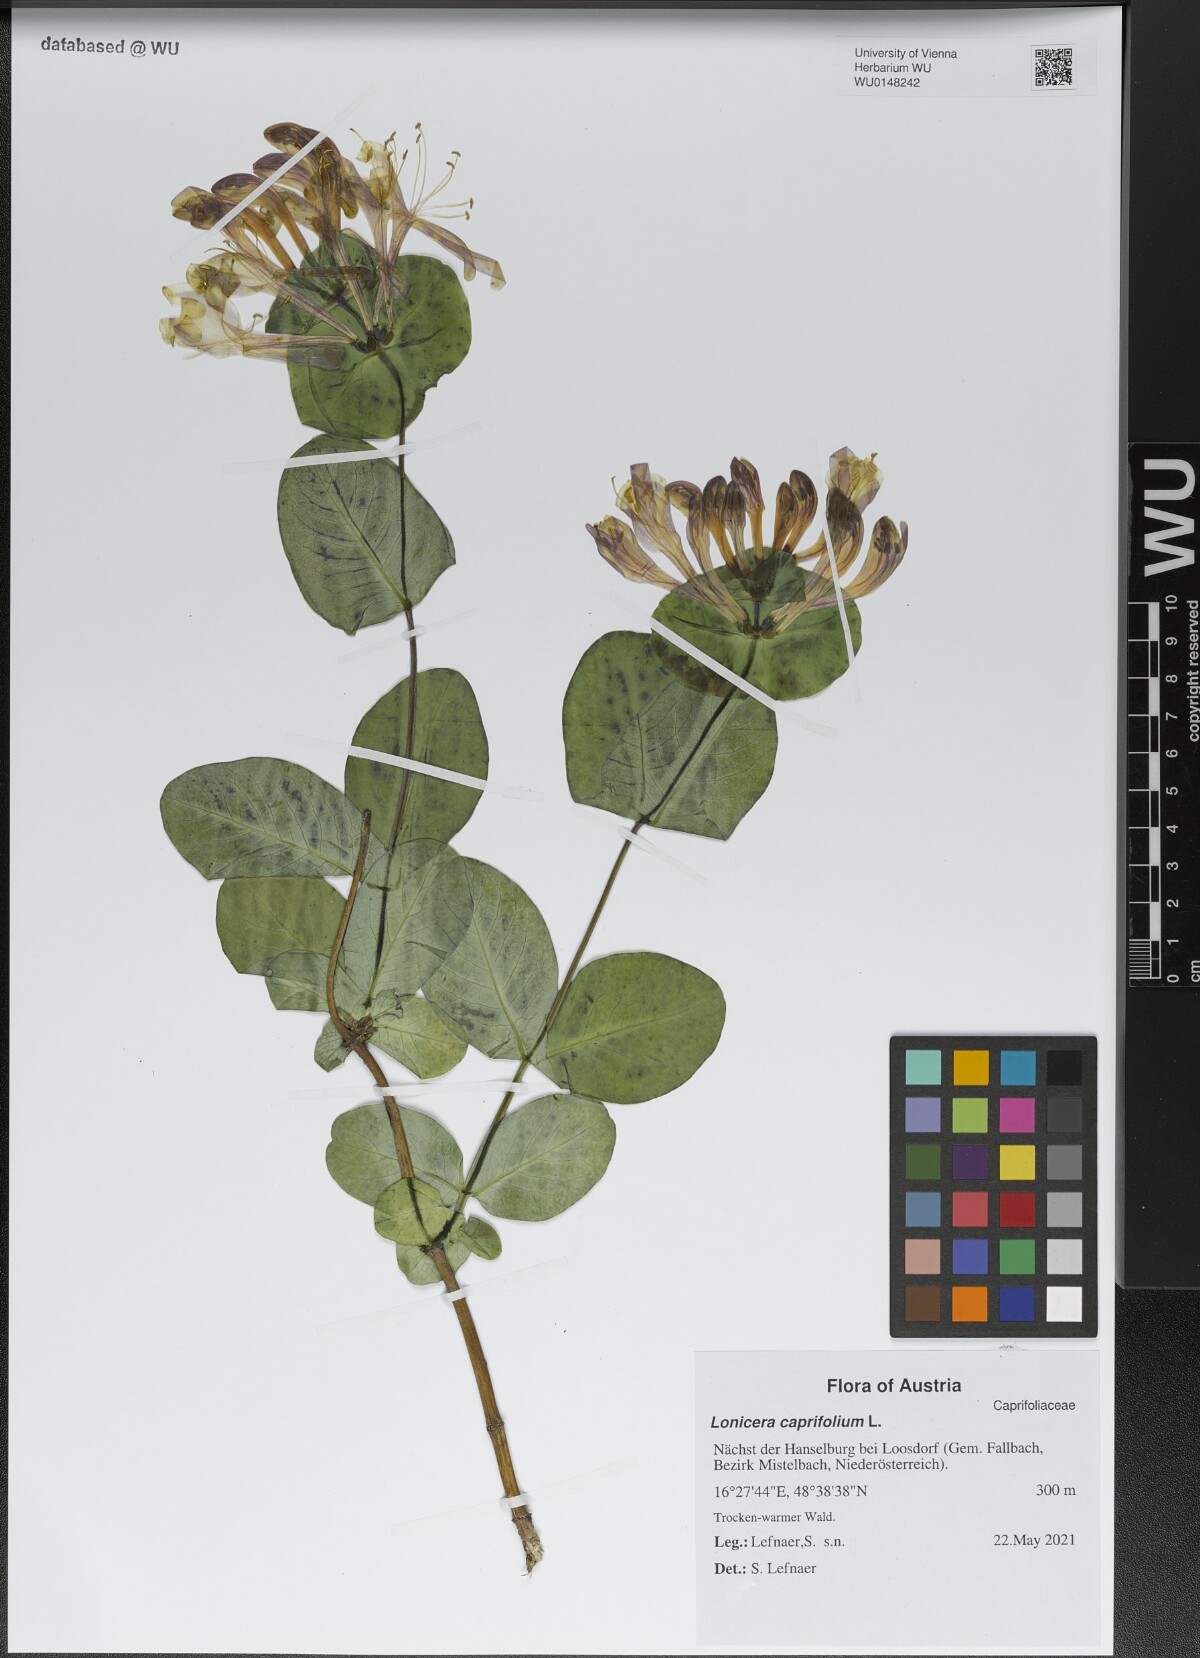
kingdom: Plantae
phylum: Tracheophyta
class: Magnoliopsida
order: Dipsacales
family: Caprifoliaceae
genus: Lonicera
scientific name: Lonicera caprifolium
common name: Perfoliate honeysuckle
